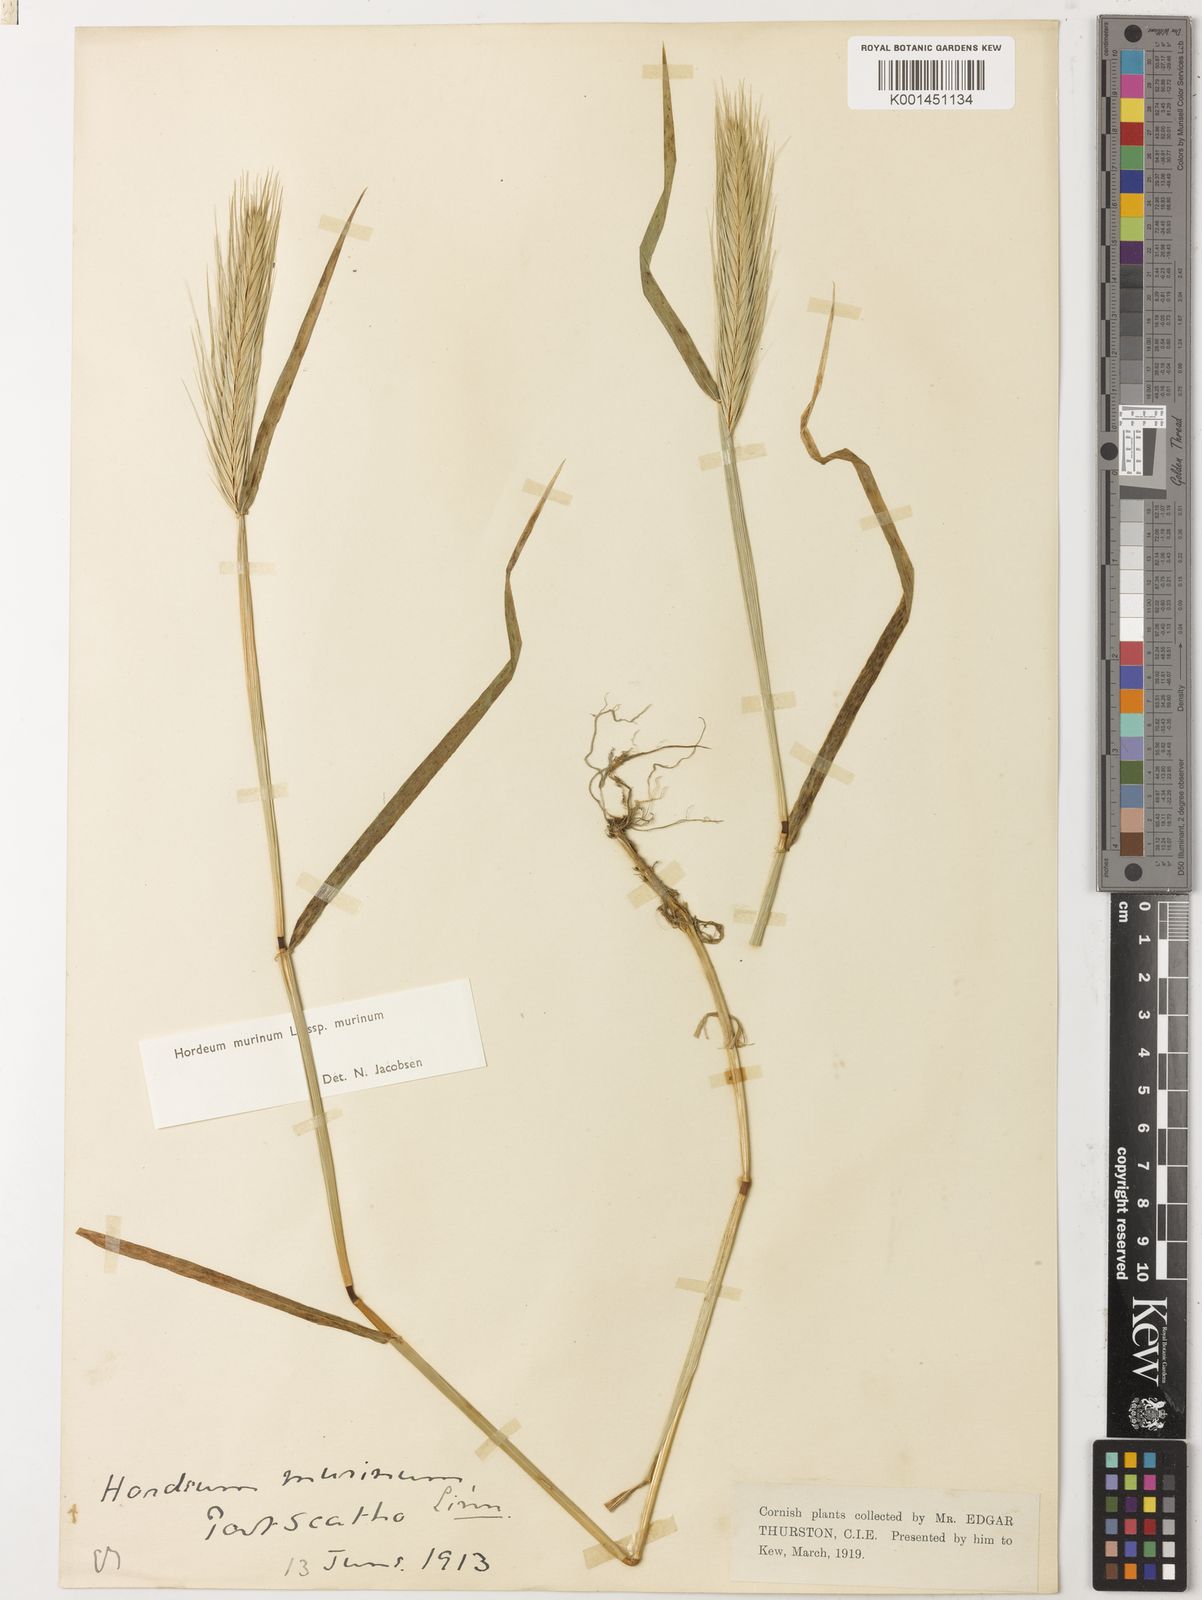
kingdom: Plantae
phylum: Tracheophyta
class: Liliopsida
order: Poales
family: Poaceae
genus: Hordeum
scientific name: Hordeum murinum
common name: Wall barley
